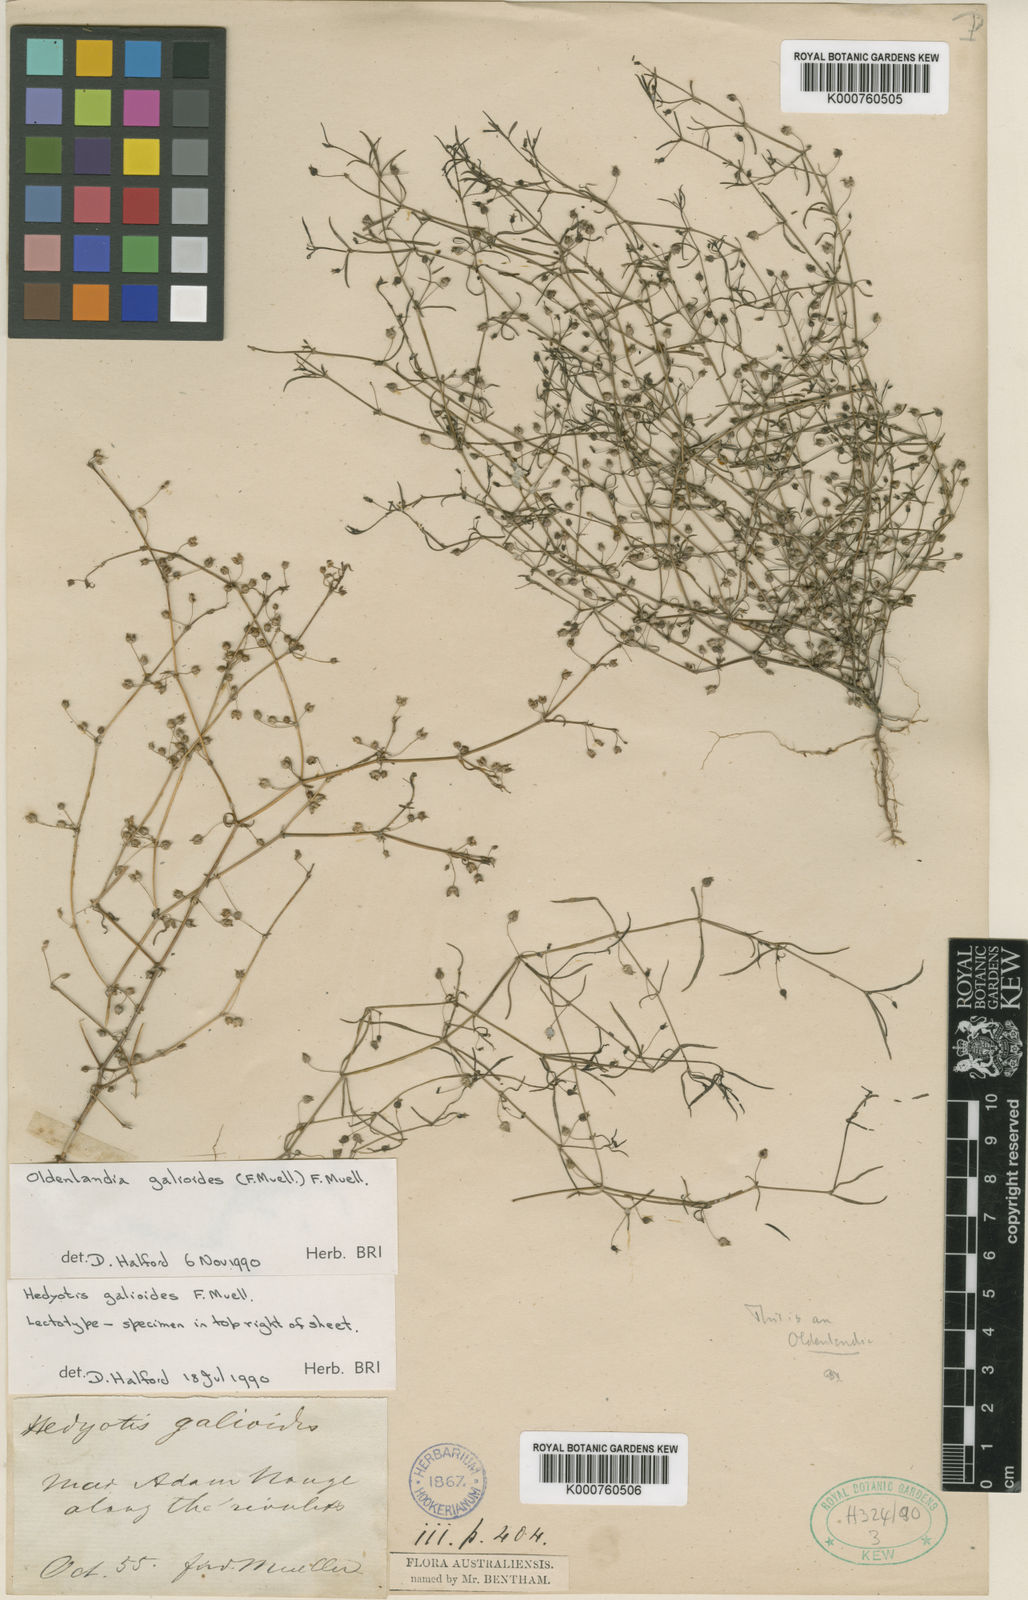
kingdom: Plantae
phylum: Tracheophyta
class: Magnoliopsida
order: Gentianales
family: Rubiaceae
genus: Scleromitrion
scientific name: Scleromitrion galioides
